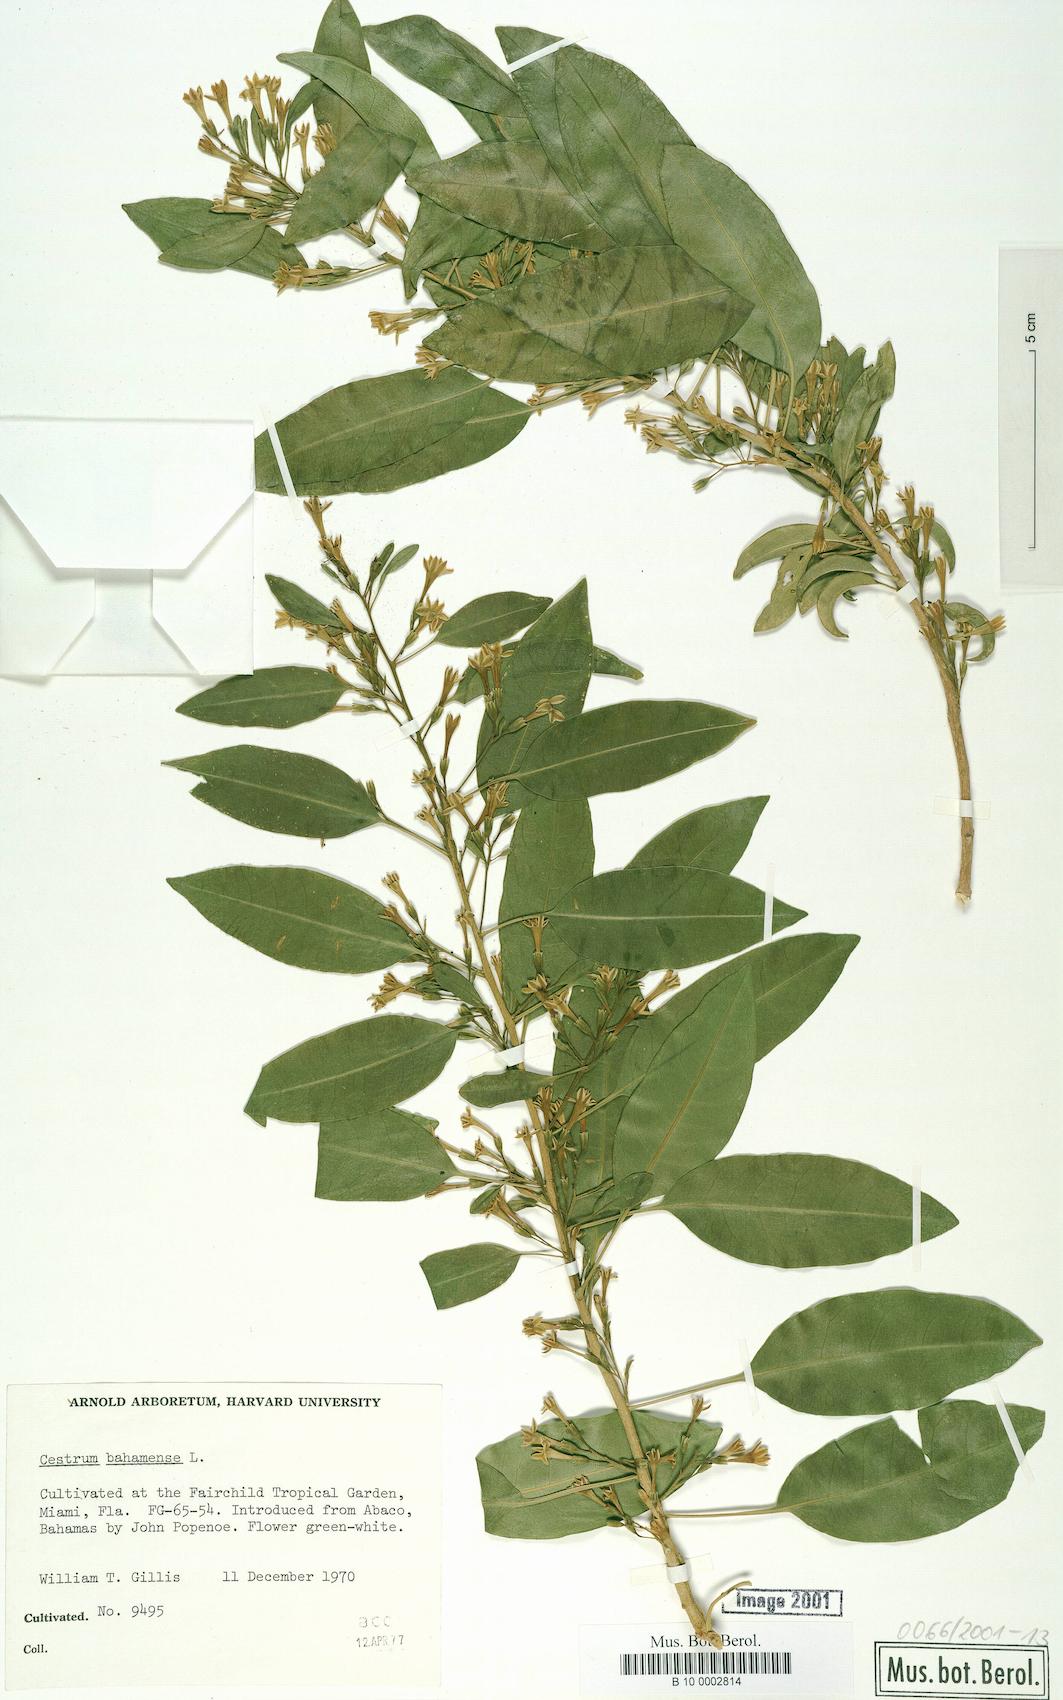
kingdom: Plantae
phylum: Tracheophyta
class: Magnoliopsida
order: Solanales
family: Solanaceae
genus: Cestrum
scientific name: Cestrum bahamense
